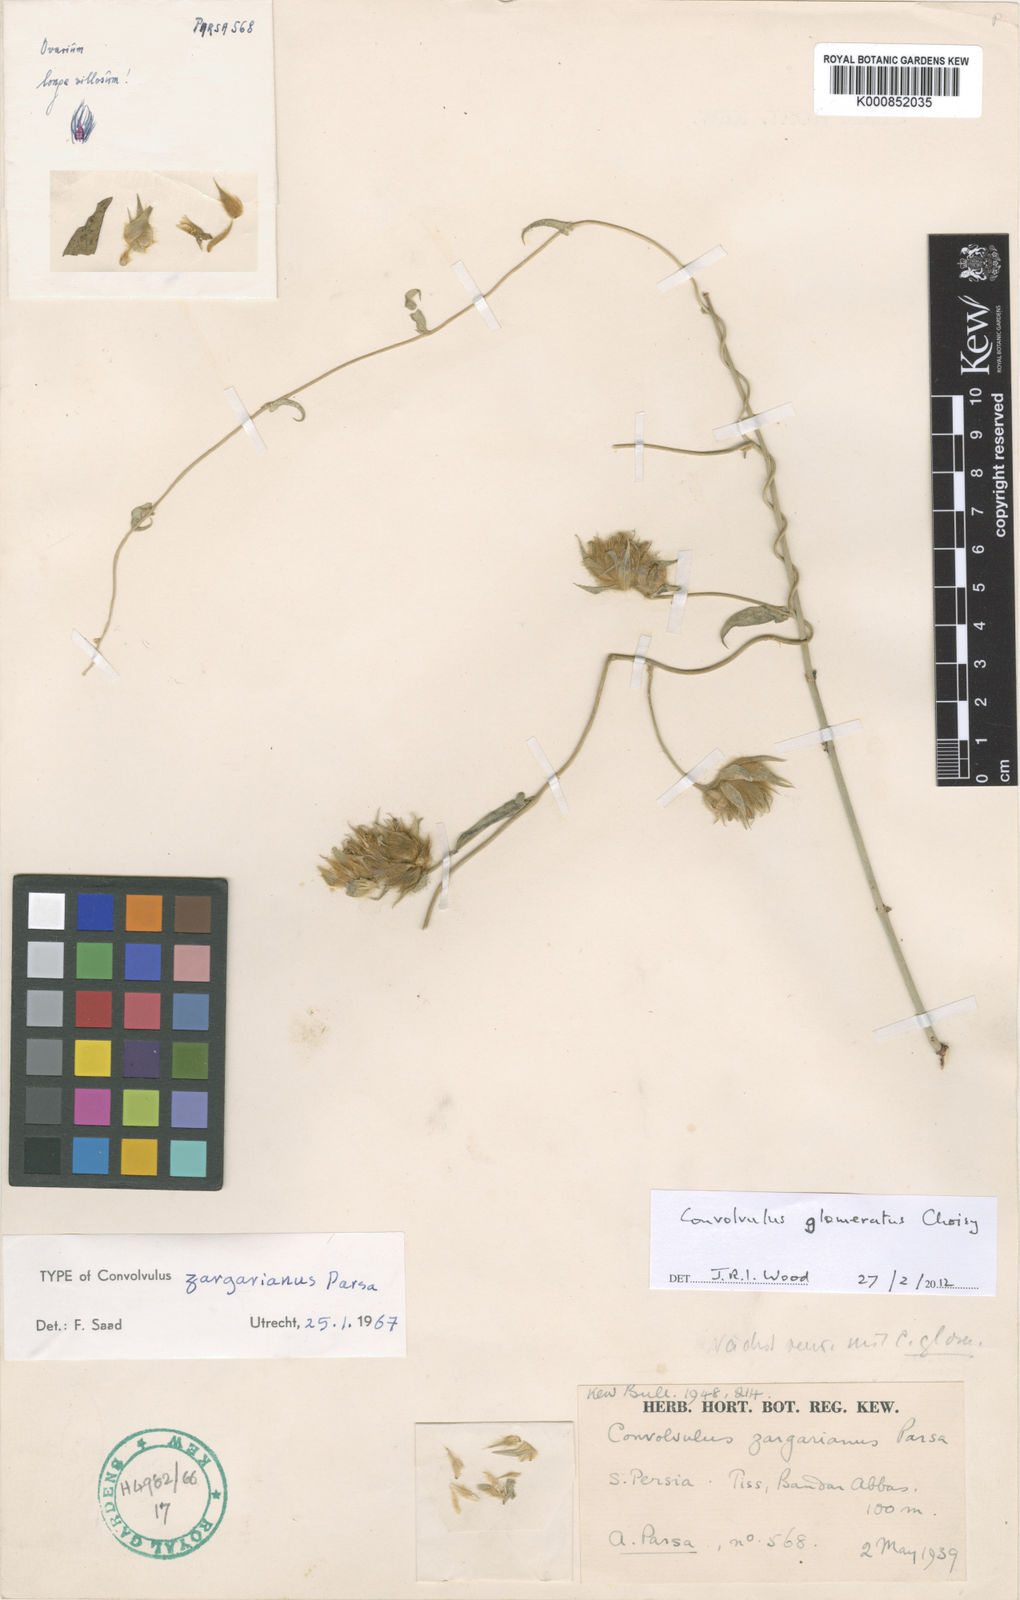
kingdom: Plantae
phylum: Tracheophyta
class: Magnoliopsida
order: Solanales
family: Convolvulaceae
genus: Convolvulus
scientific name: Convolvulus glomeratus
